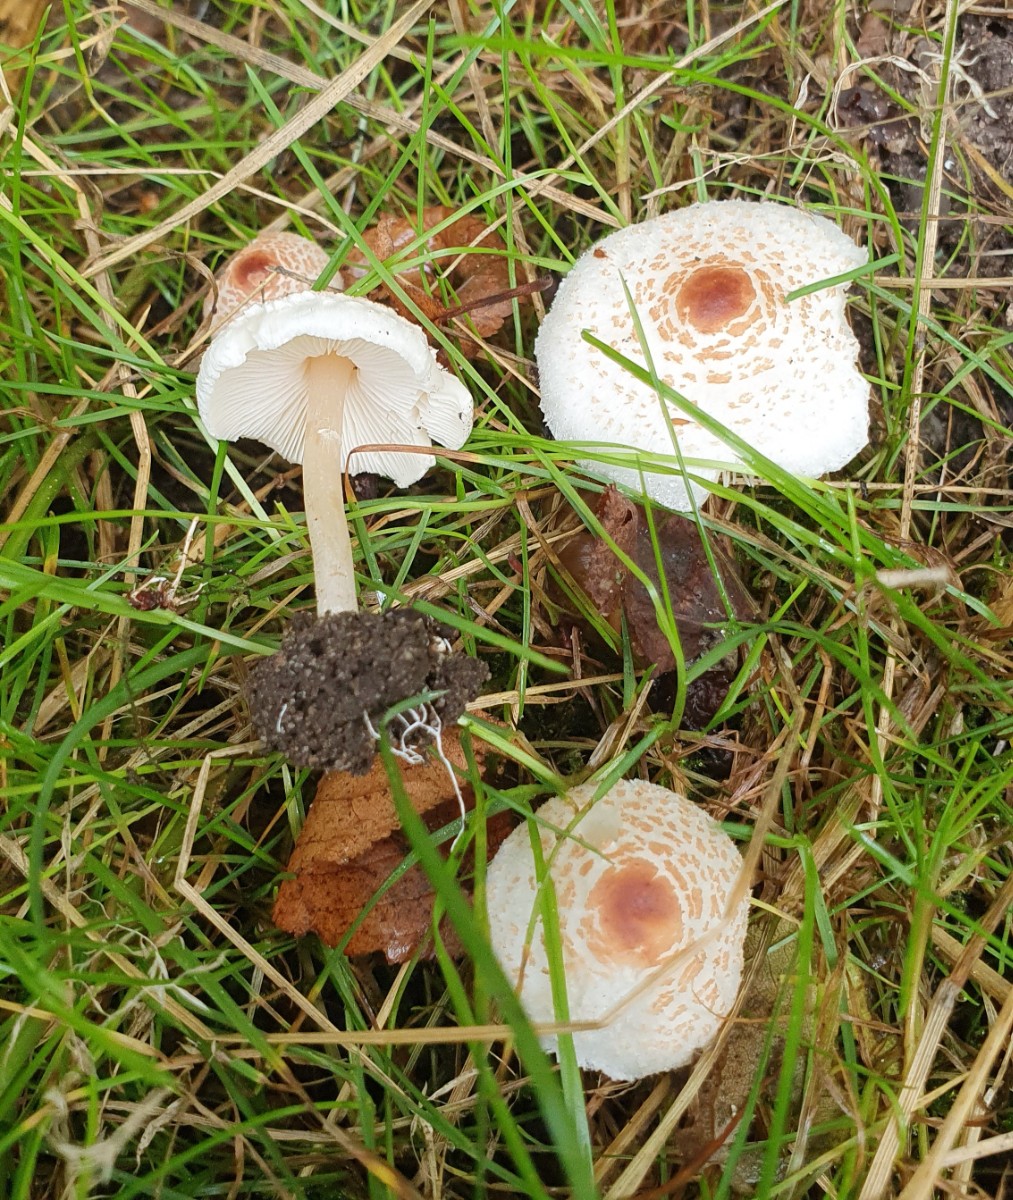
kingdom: Fungi
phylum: Basidiomycota
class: Agaricomycetes
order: Agaricales
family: Agaricaceae
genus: Lepiota
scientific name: Lepiota cristata
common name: stinkende parasolhat
